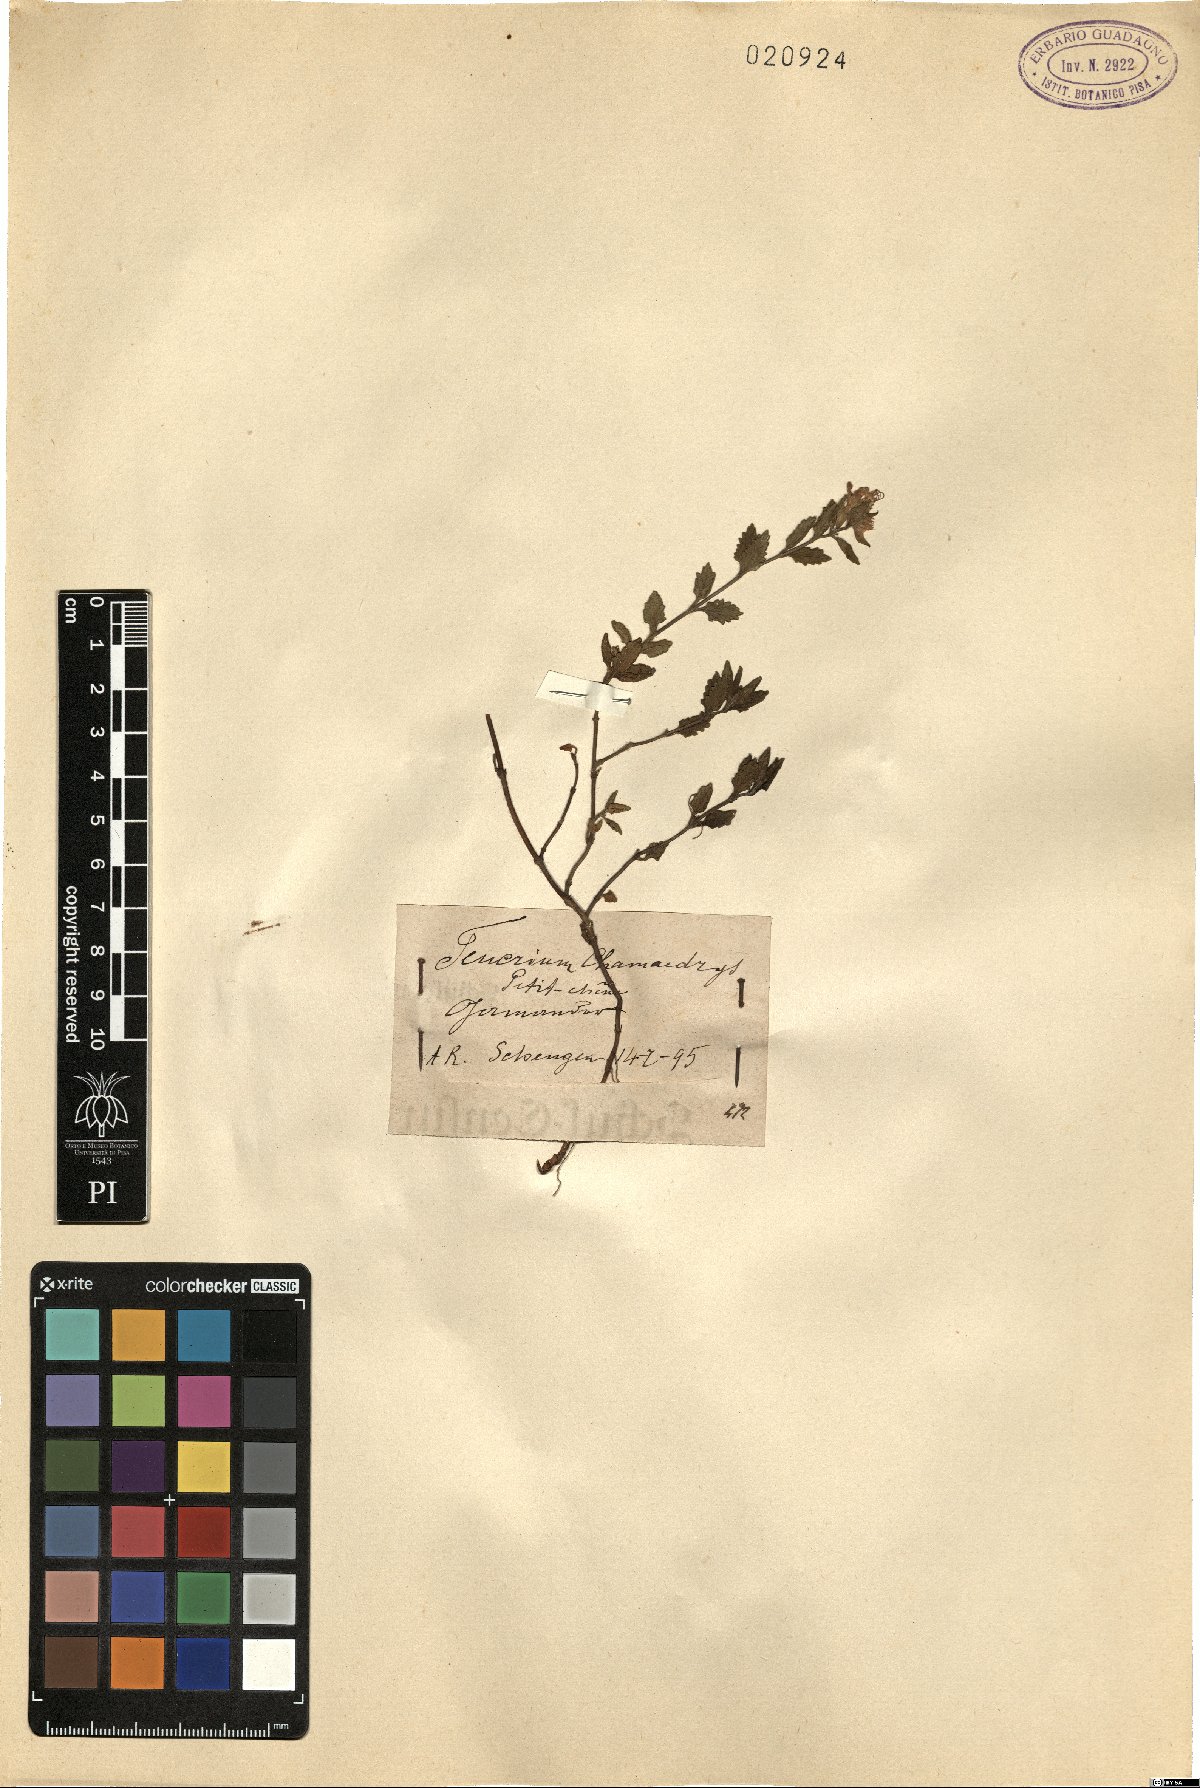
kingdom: Plantae
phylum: Tracheophyta
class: Magnoliopsida
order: Lamiales
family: Lamiaceae
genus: Teucrium
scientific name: Teucrium chamaedrys
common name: Wall germander
